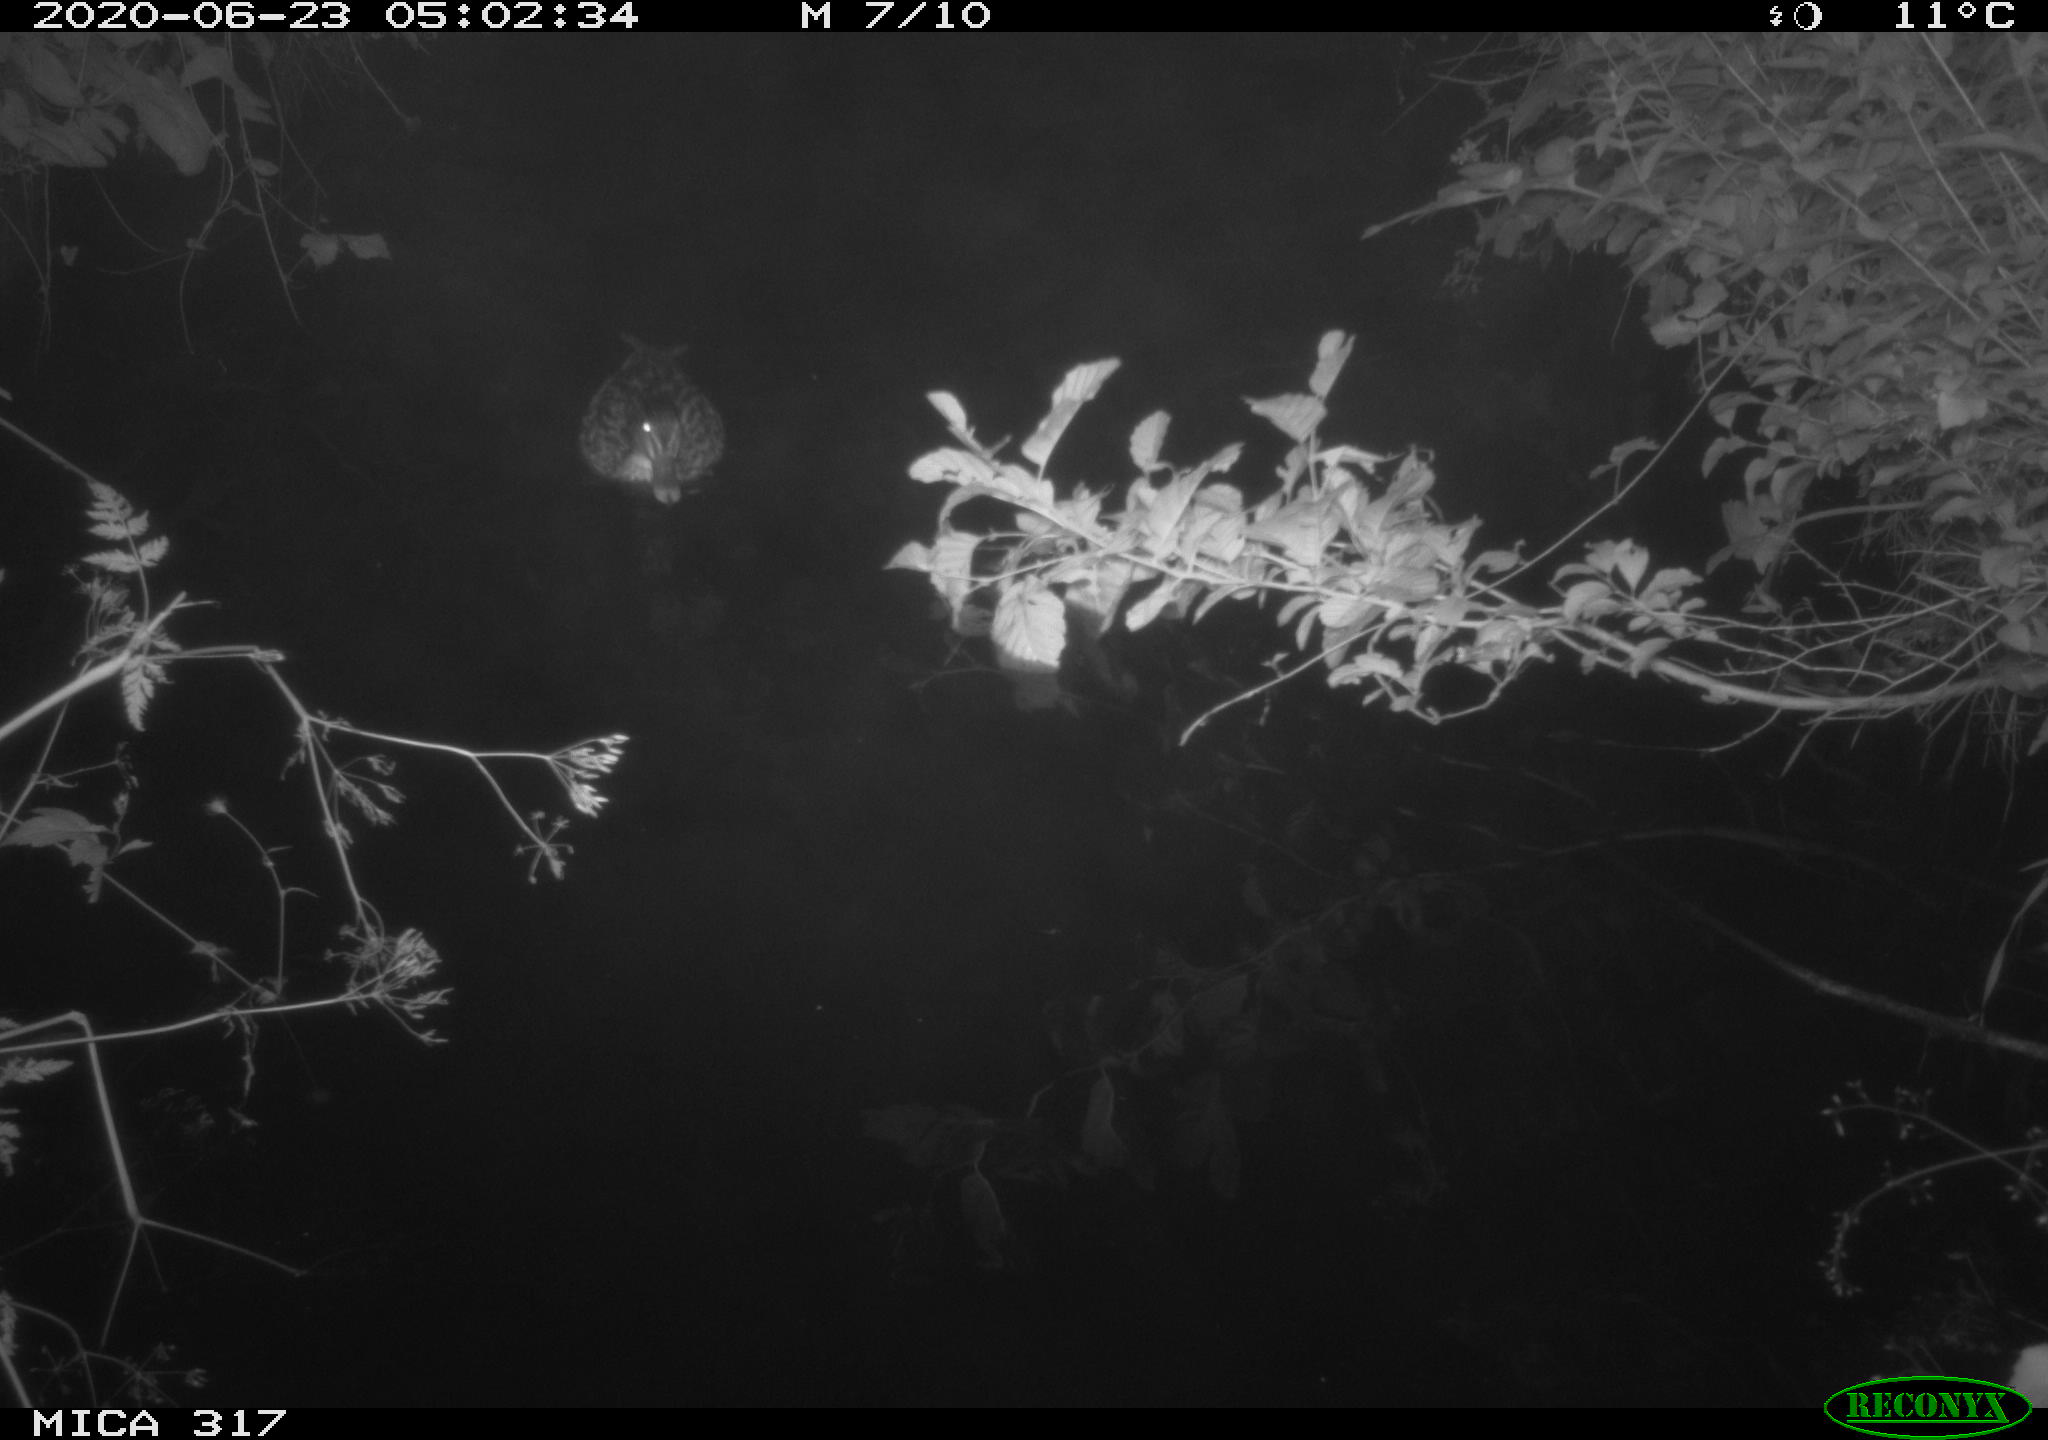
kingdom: Animalia
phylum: Chordata
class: Aves
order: Anseriformes
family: Anatidae
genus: Anas
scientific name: Anas platyrhynchos
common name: Mallard
